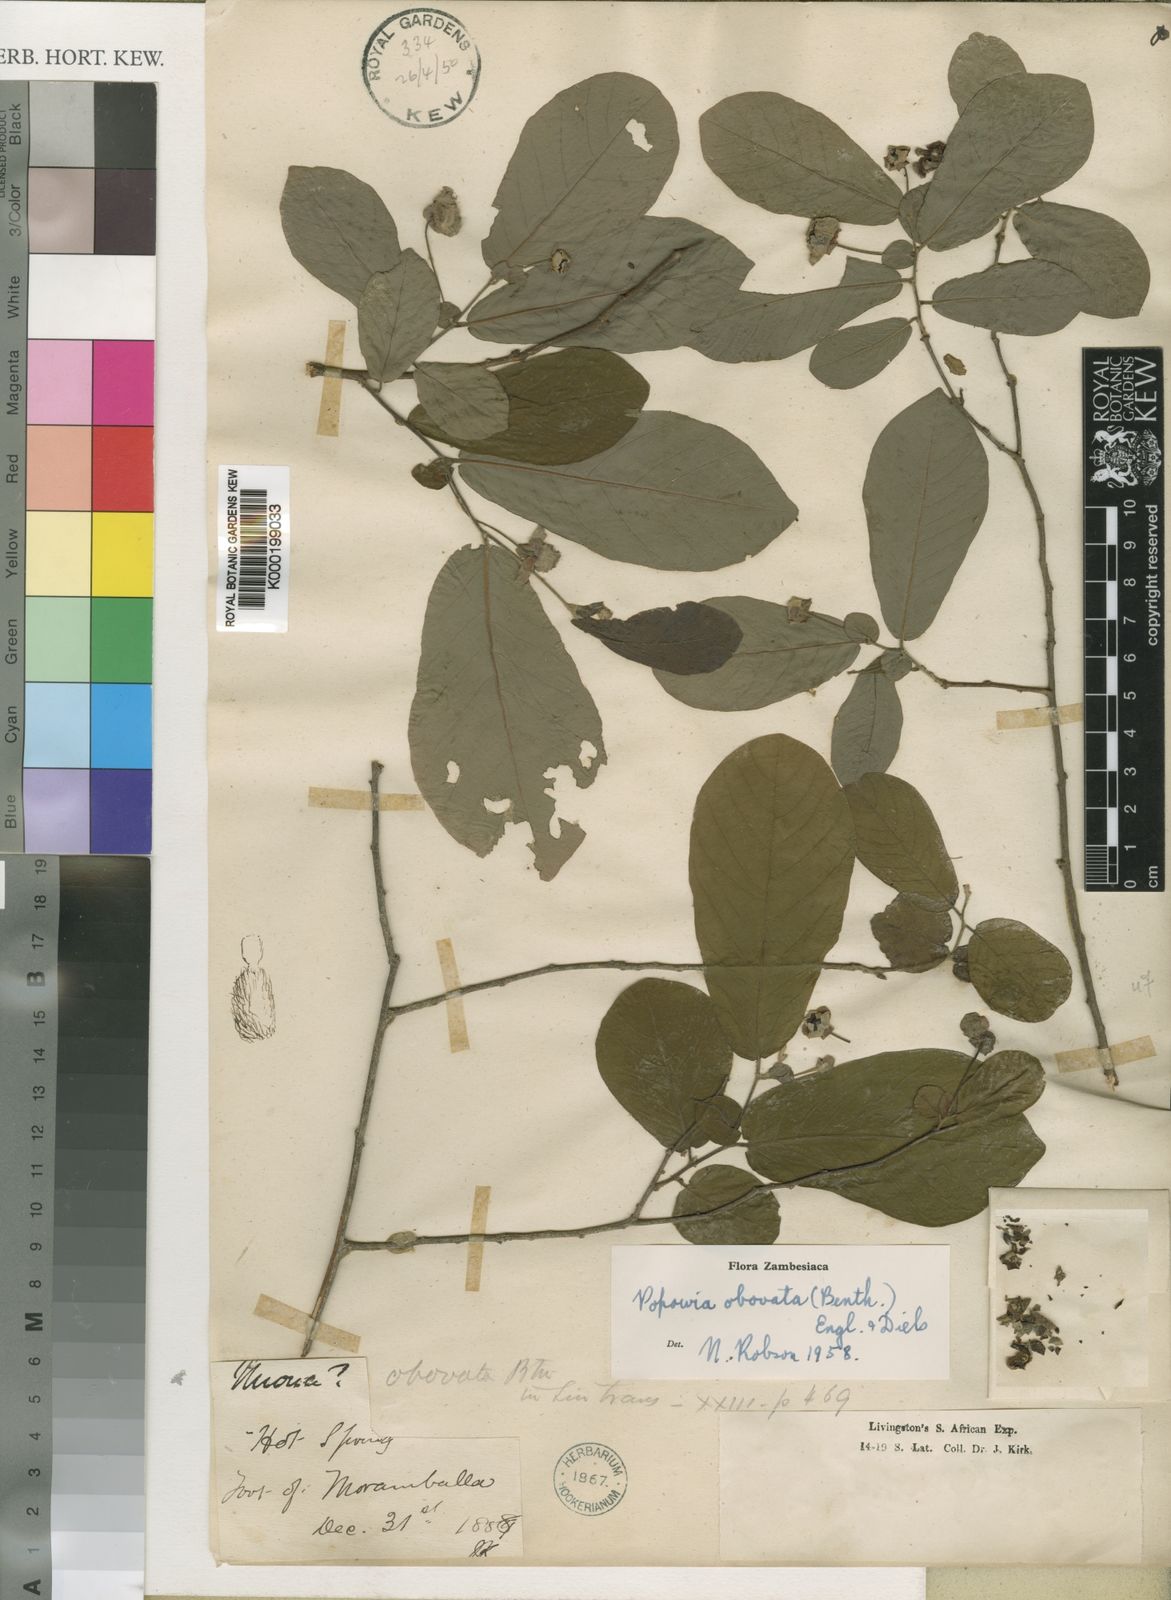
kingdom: Plantae
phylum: Tracheophyta
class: Magnoliopsida
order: Magnoliales
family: Annonaceae
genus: Friesodielsia
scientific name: Friesodielsia obovata
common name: Monkey fingers
